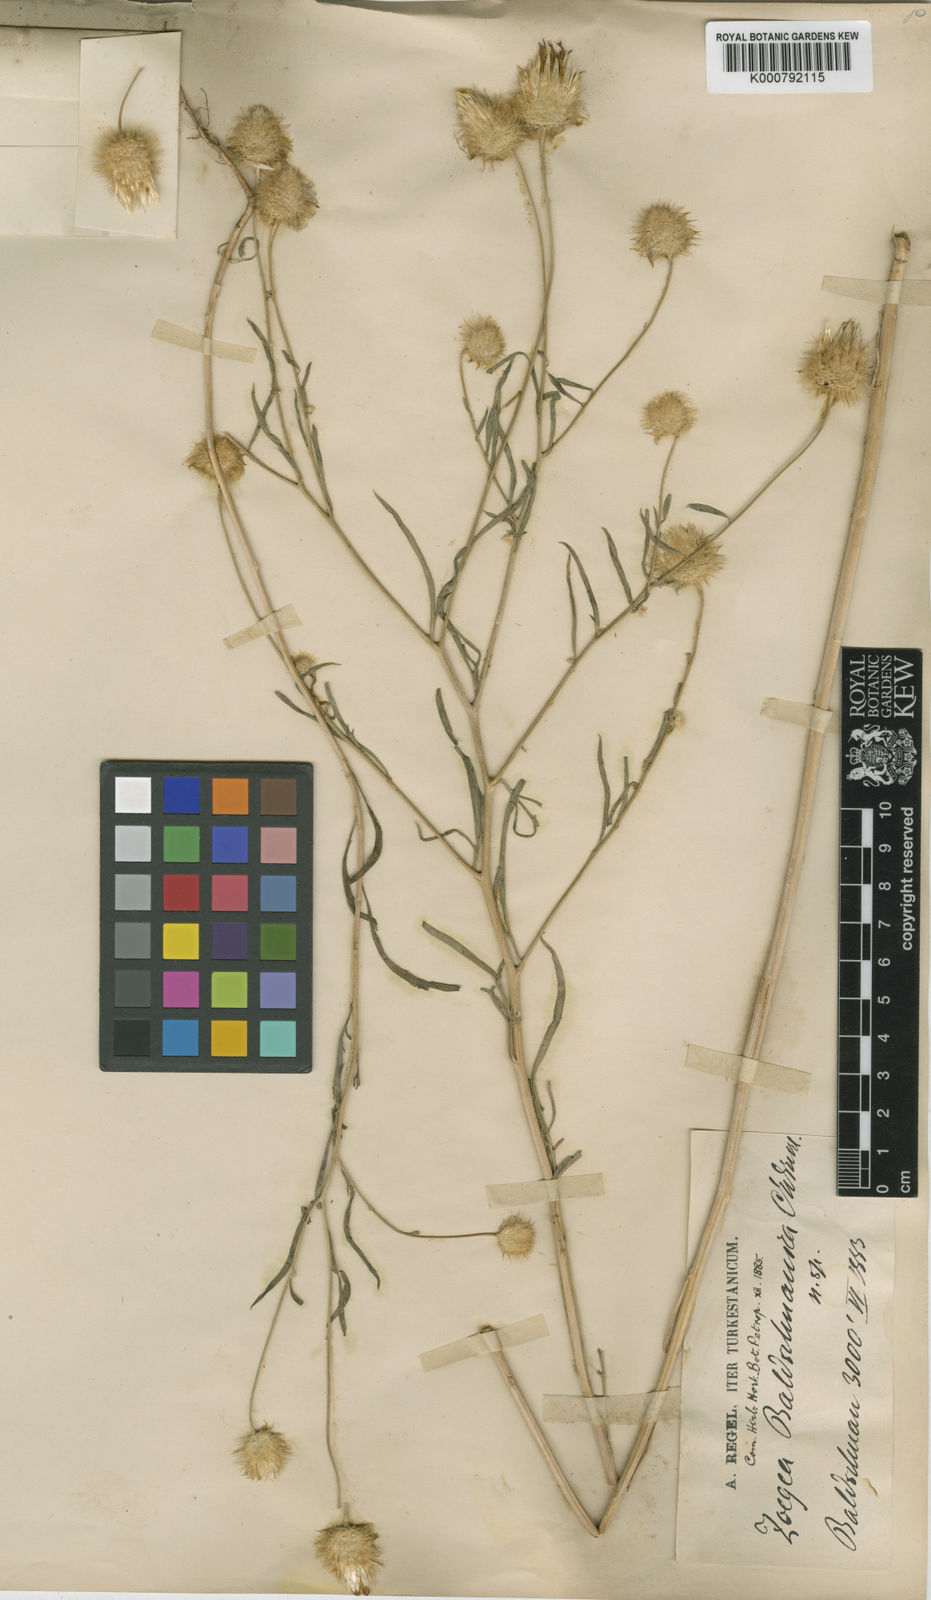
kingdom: Plantae
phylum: Tracheophyta
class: Magnoliopsida
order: Asterales
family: Asteraceae
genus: Zoegea
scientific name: Zoegea crinita
